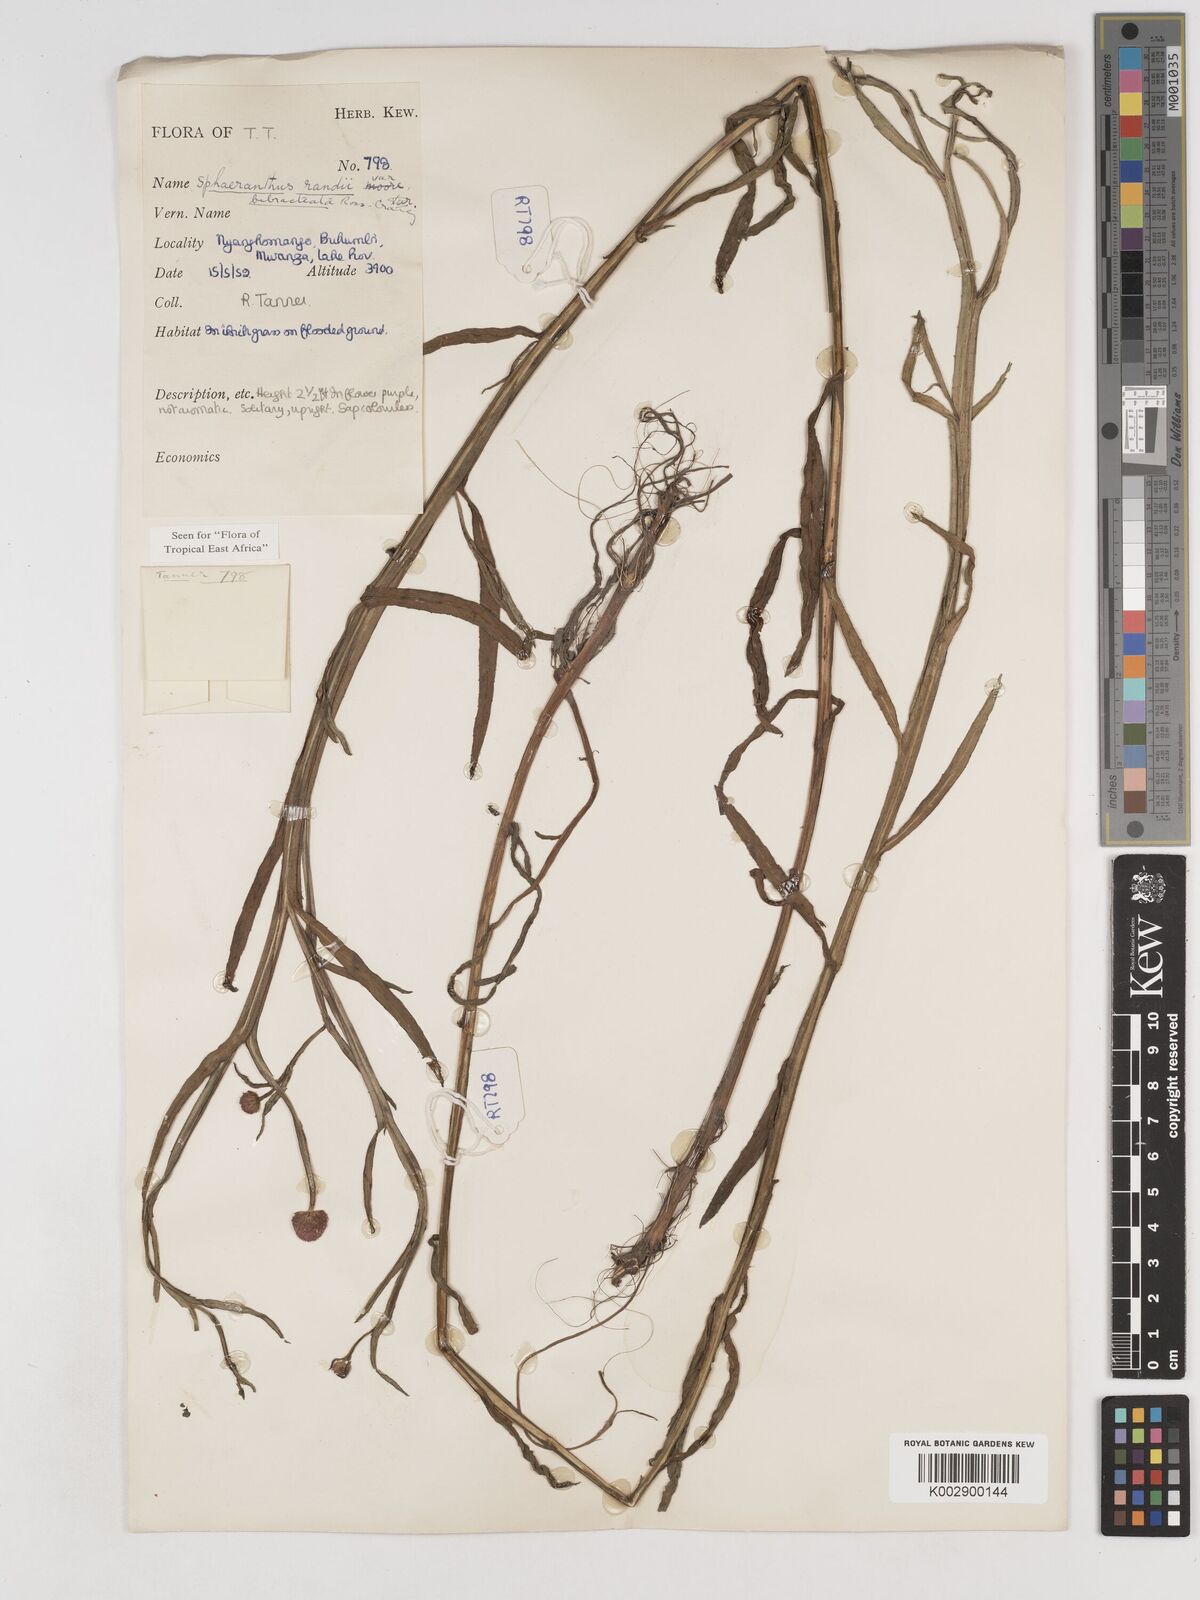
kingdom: Plantae
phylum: Tracheophyta
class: Magnoliopsida
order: Asterales
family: Asteraceae
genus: Sphaeranthus
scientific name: Sphaeranthus randii
